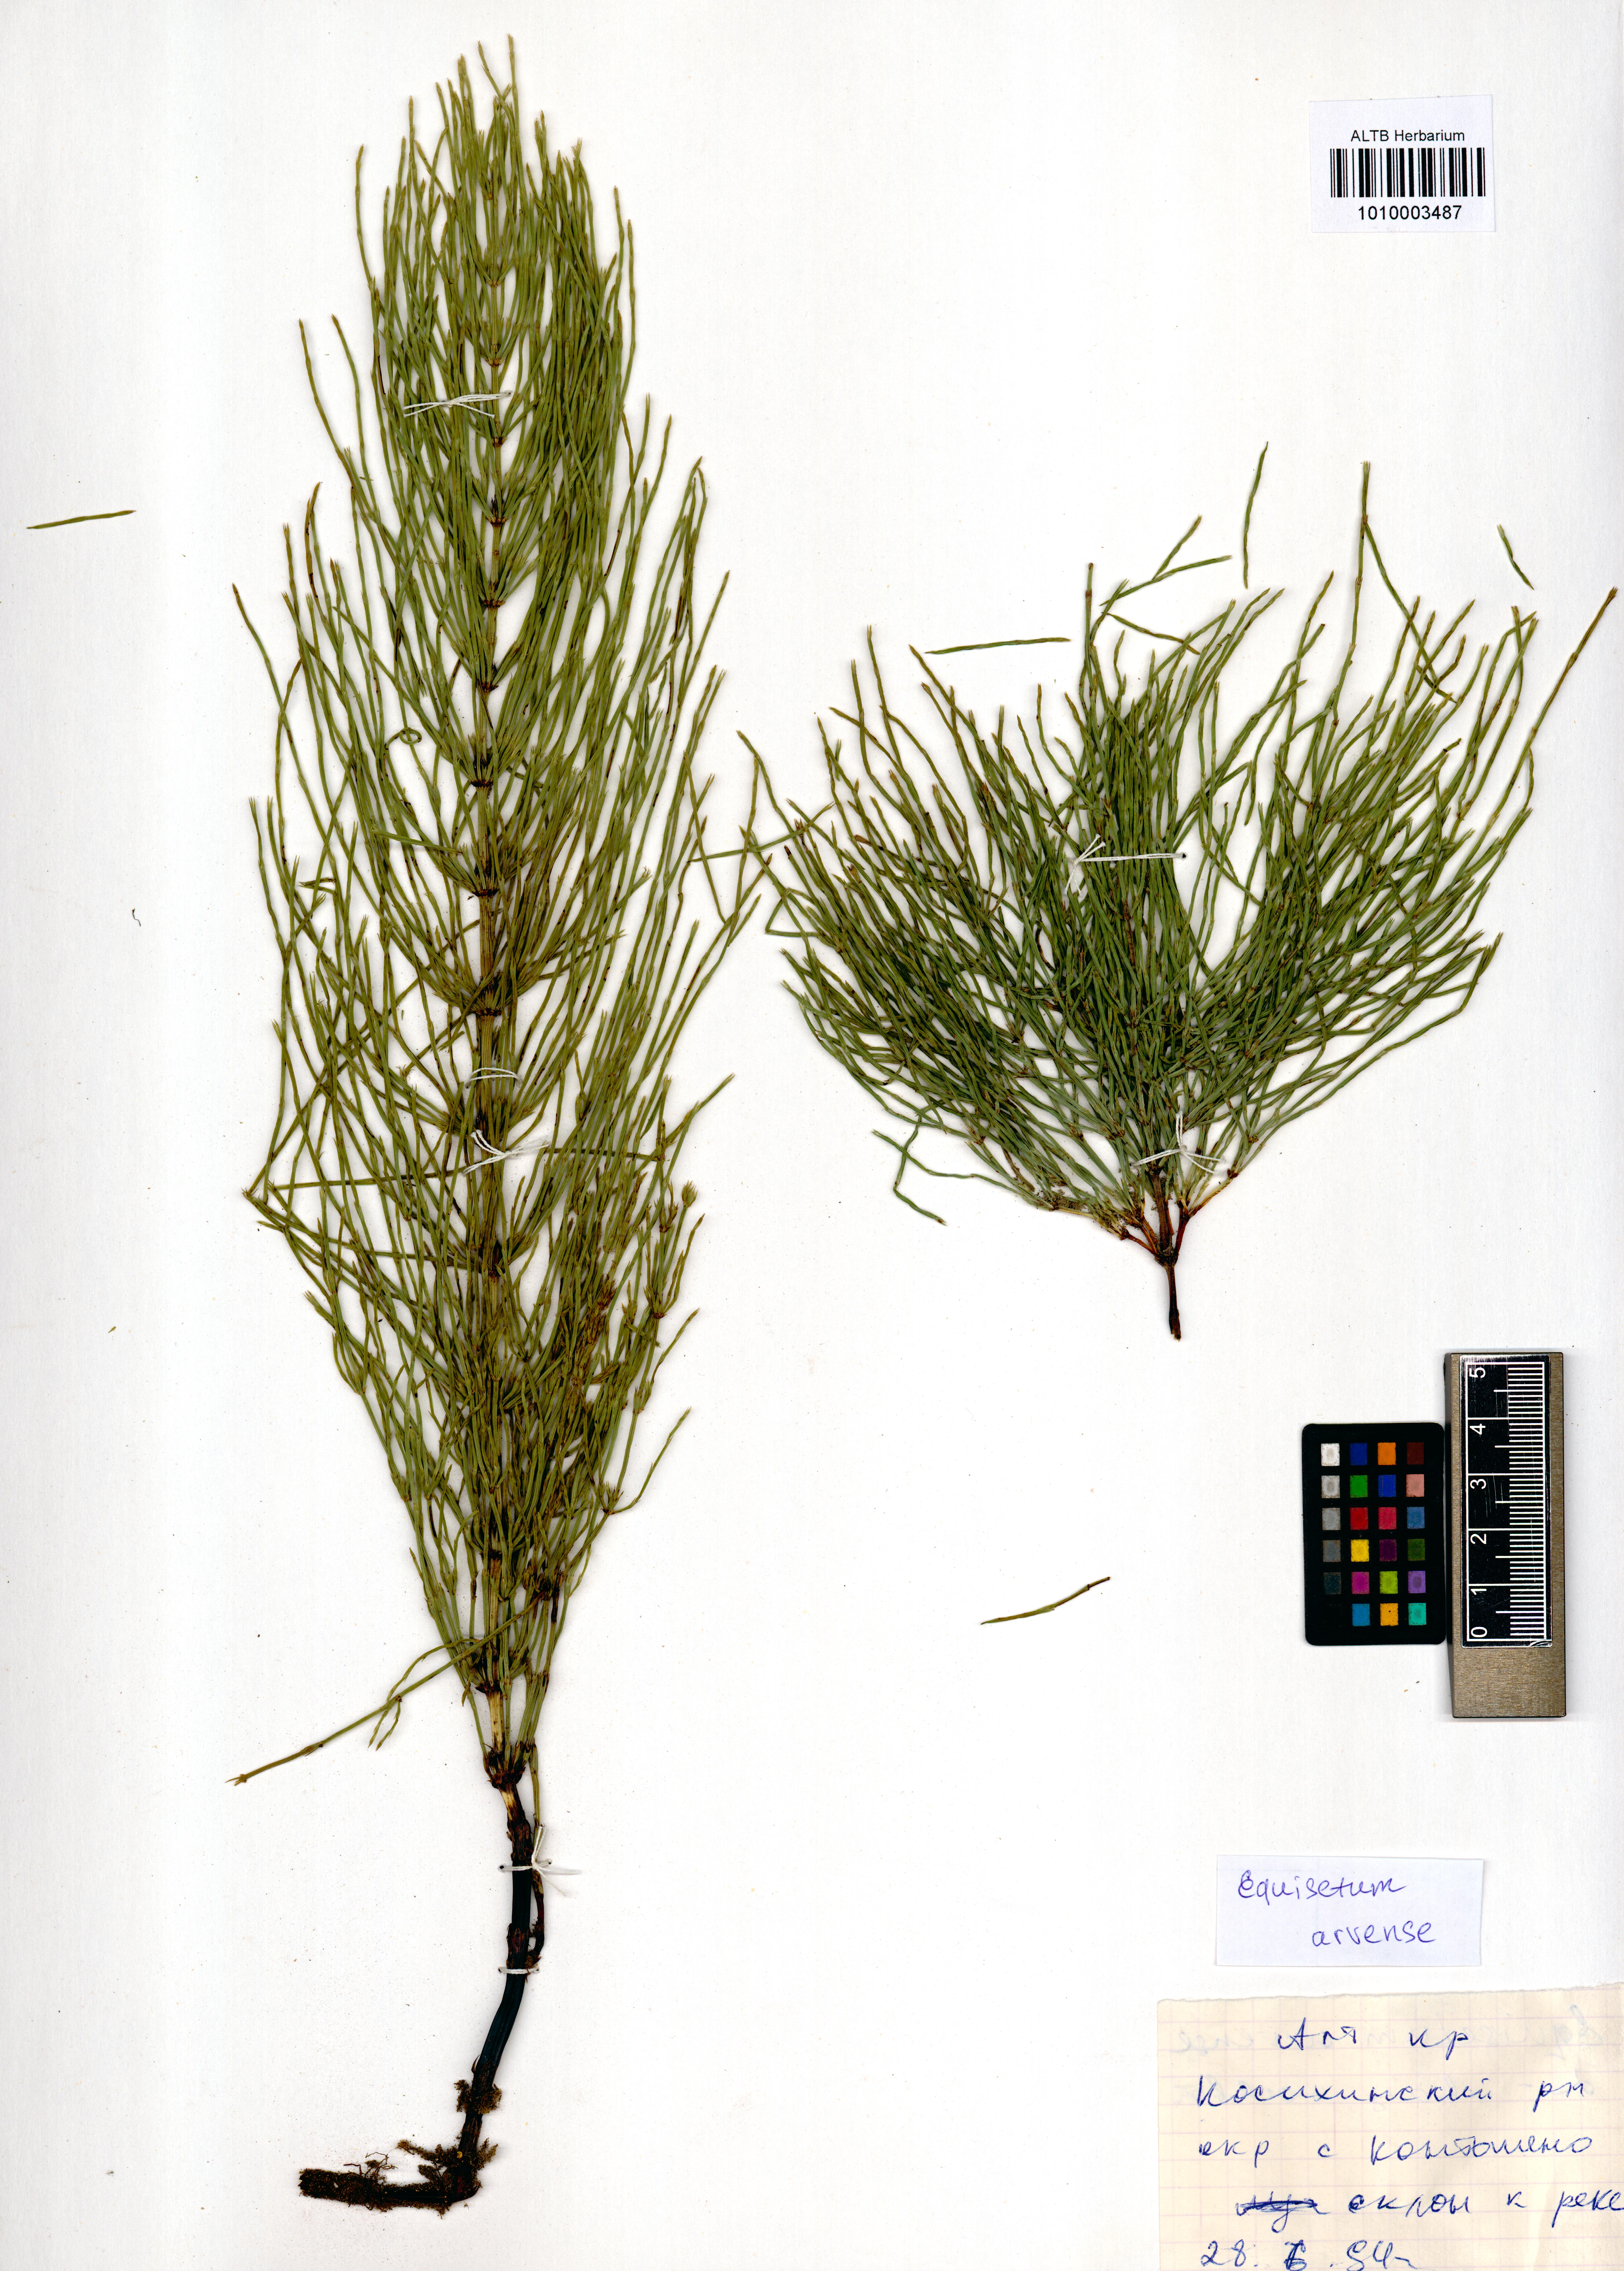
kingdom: Plantae
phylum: Tracheophyta
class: Polypodiopsida
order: Equisetales
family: Equisetaceae
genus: Equisetum
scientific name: Equisetum arvense
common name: Field horsetail
